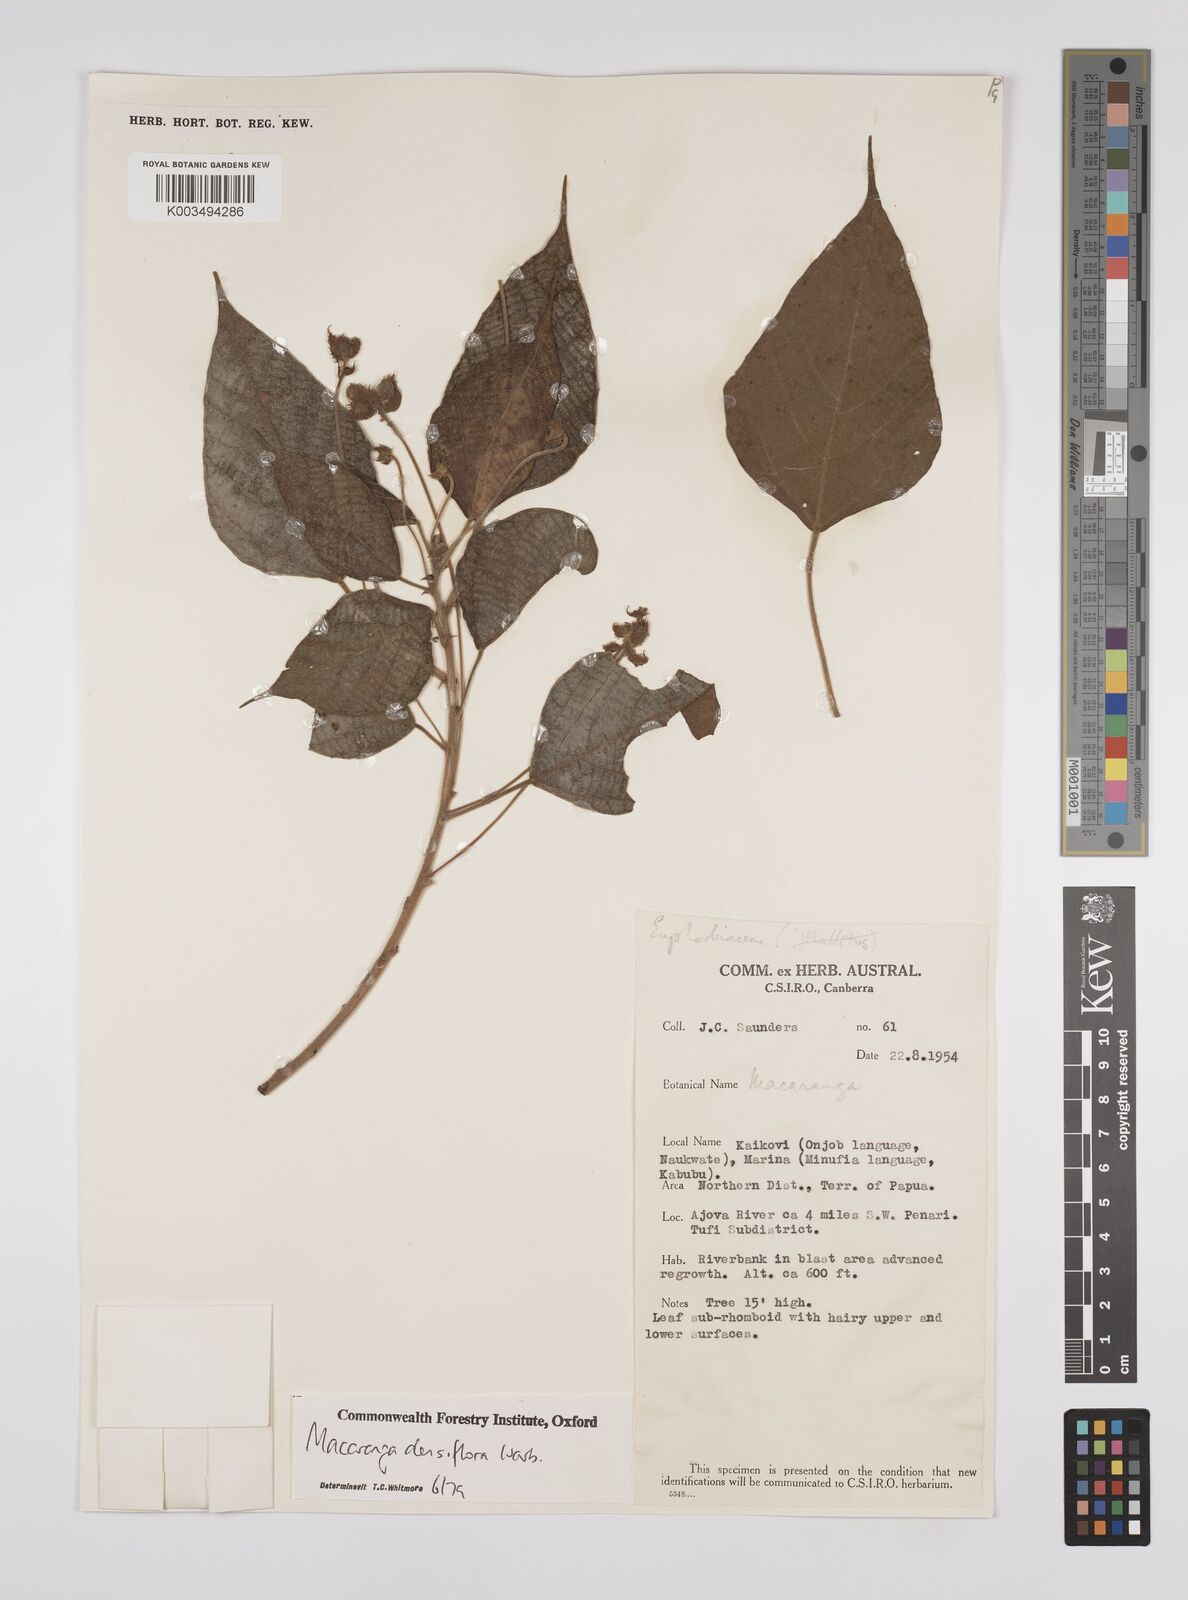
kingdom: Plantae
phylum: Tracheophyta
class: Magnoliopsida
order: Malpighiales
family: Euphorbiaceae
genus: Macaranga
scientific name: Macaranga densiflora
